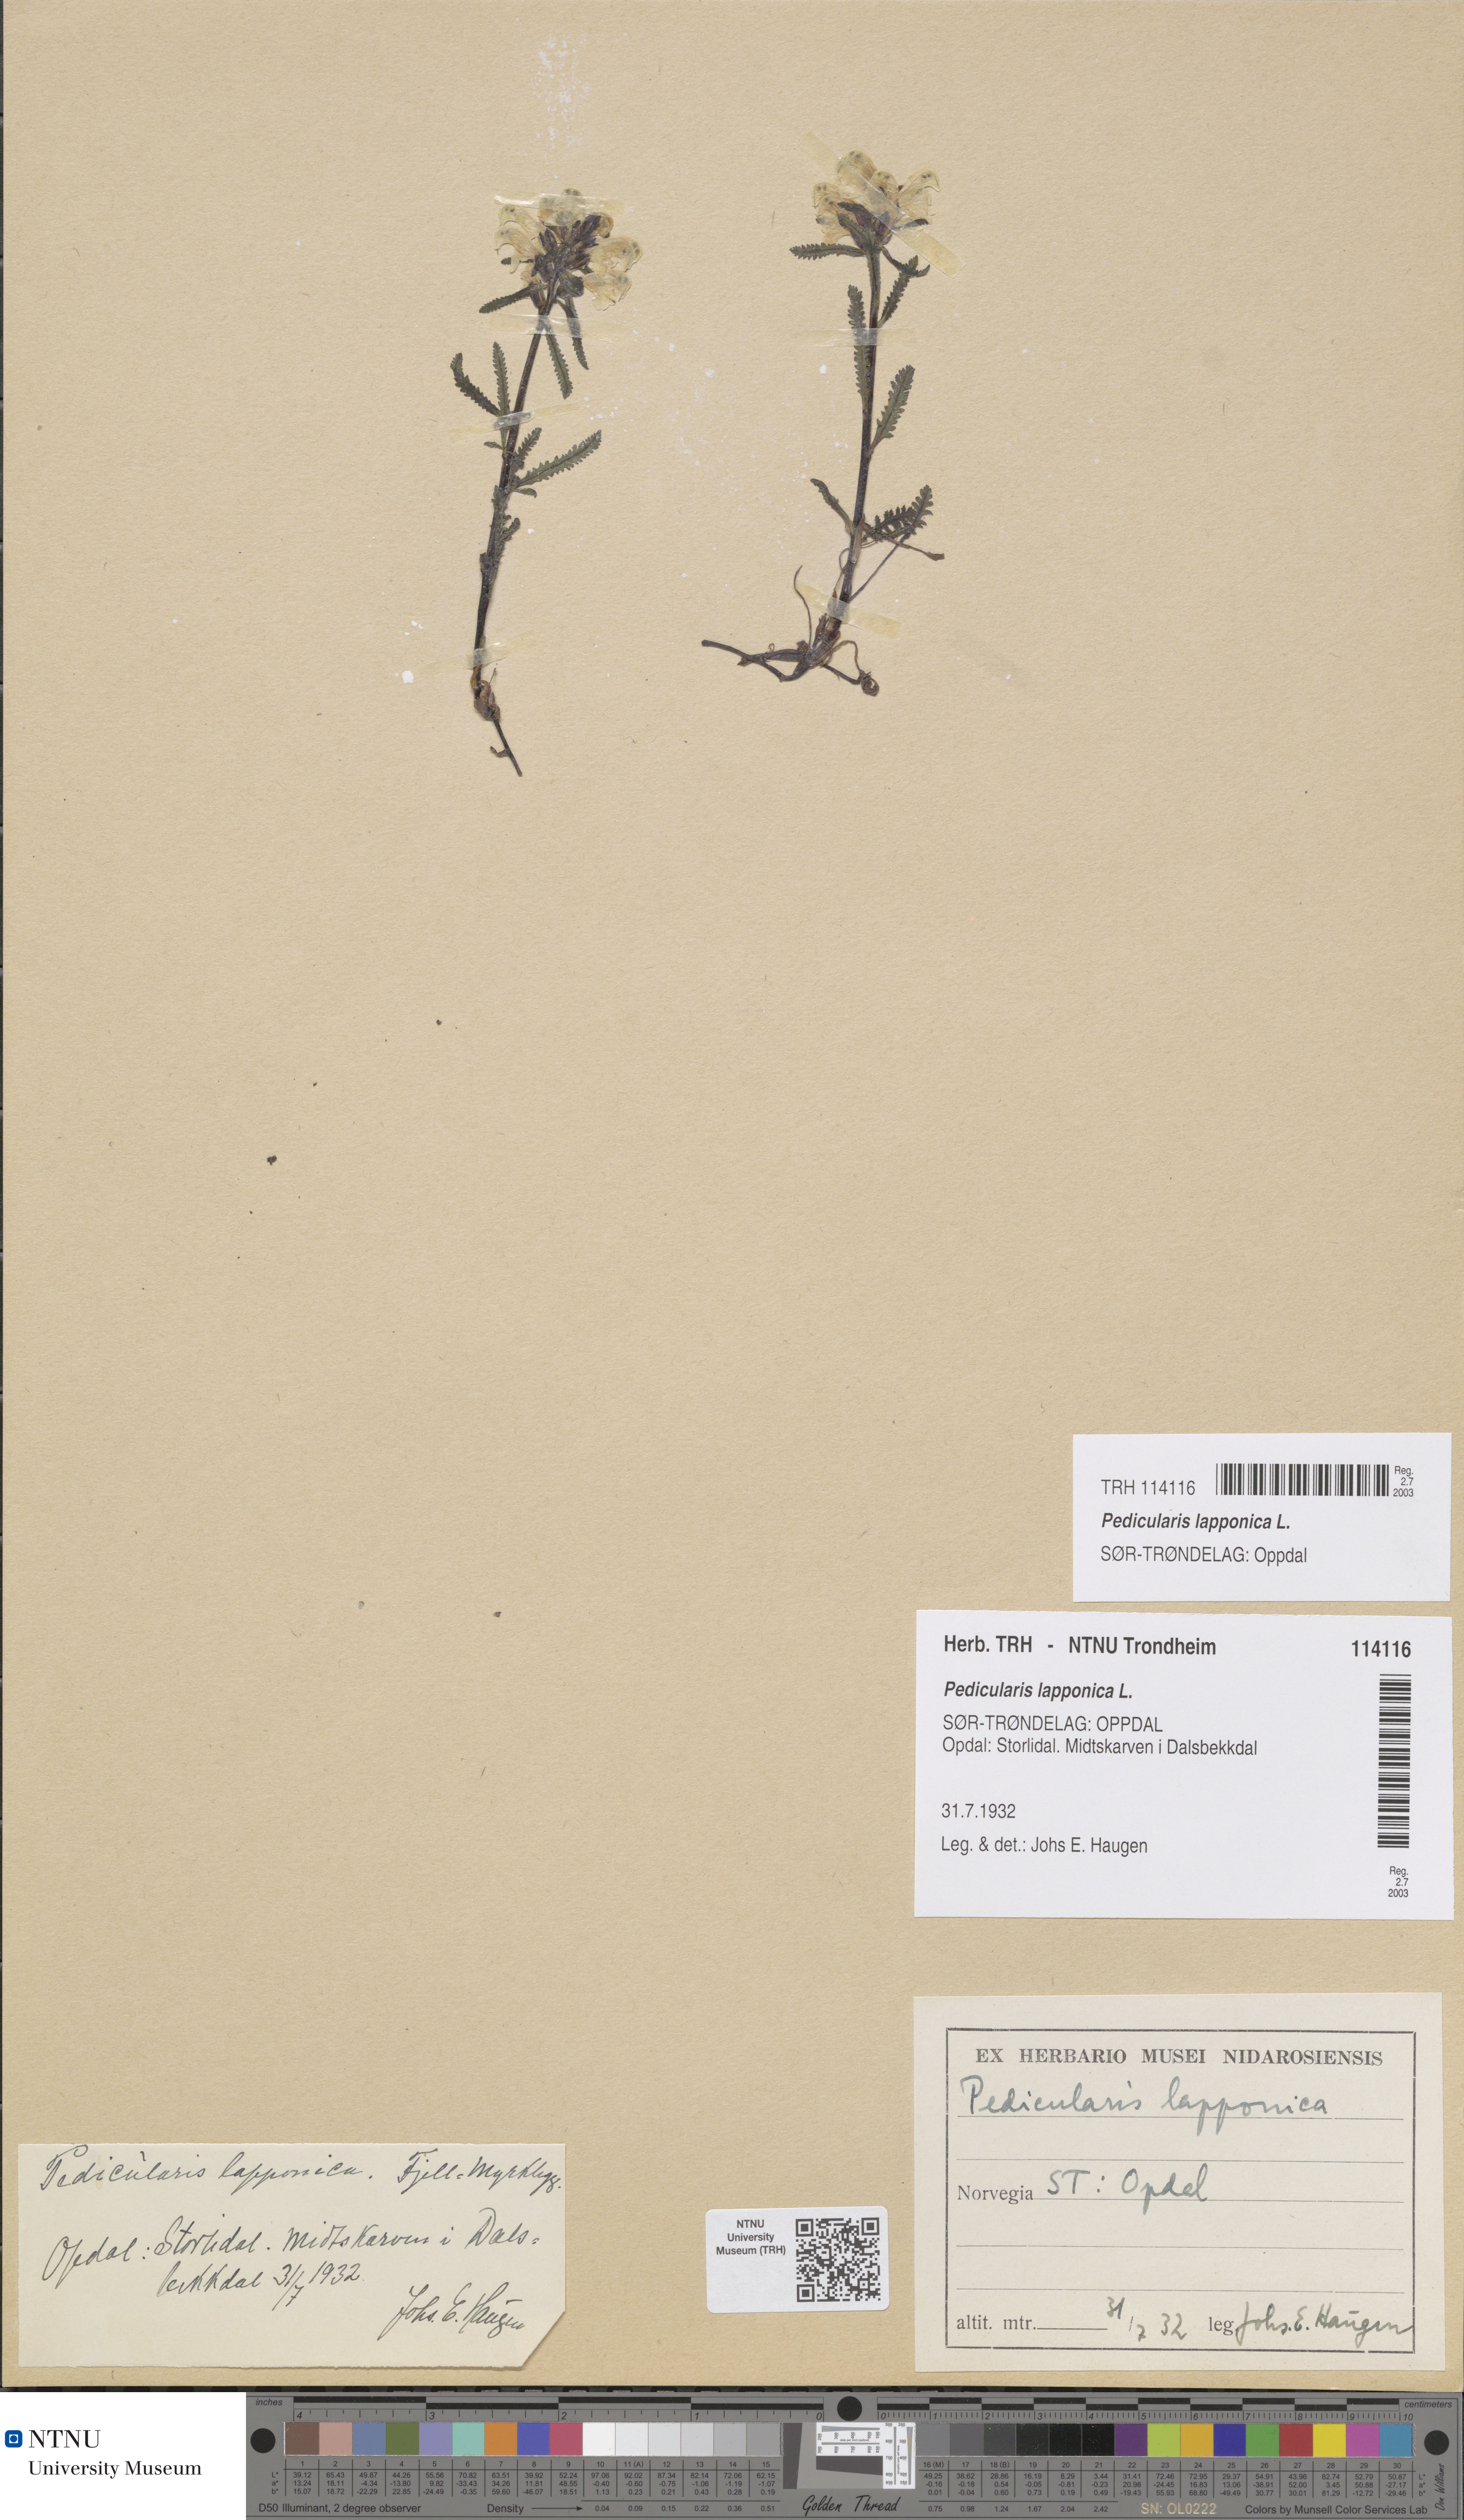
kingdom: Plantae
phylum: Tracheophyta
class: Magnoliopsida
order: Lamiales
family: Orobanchaceae
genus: Pedicularis
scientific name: Pedicularis lapponica
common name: Lapland lousewort
